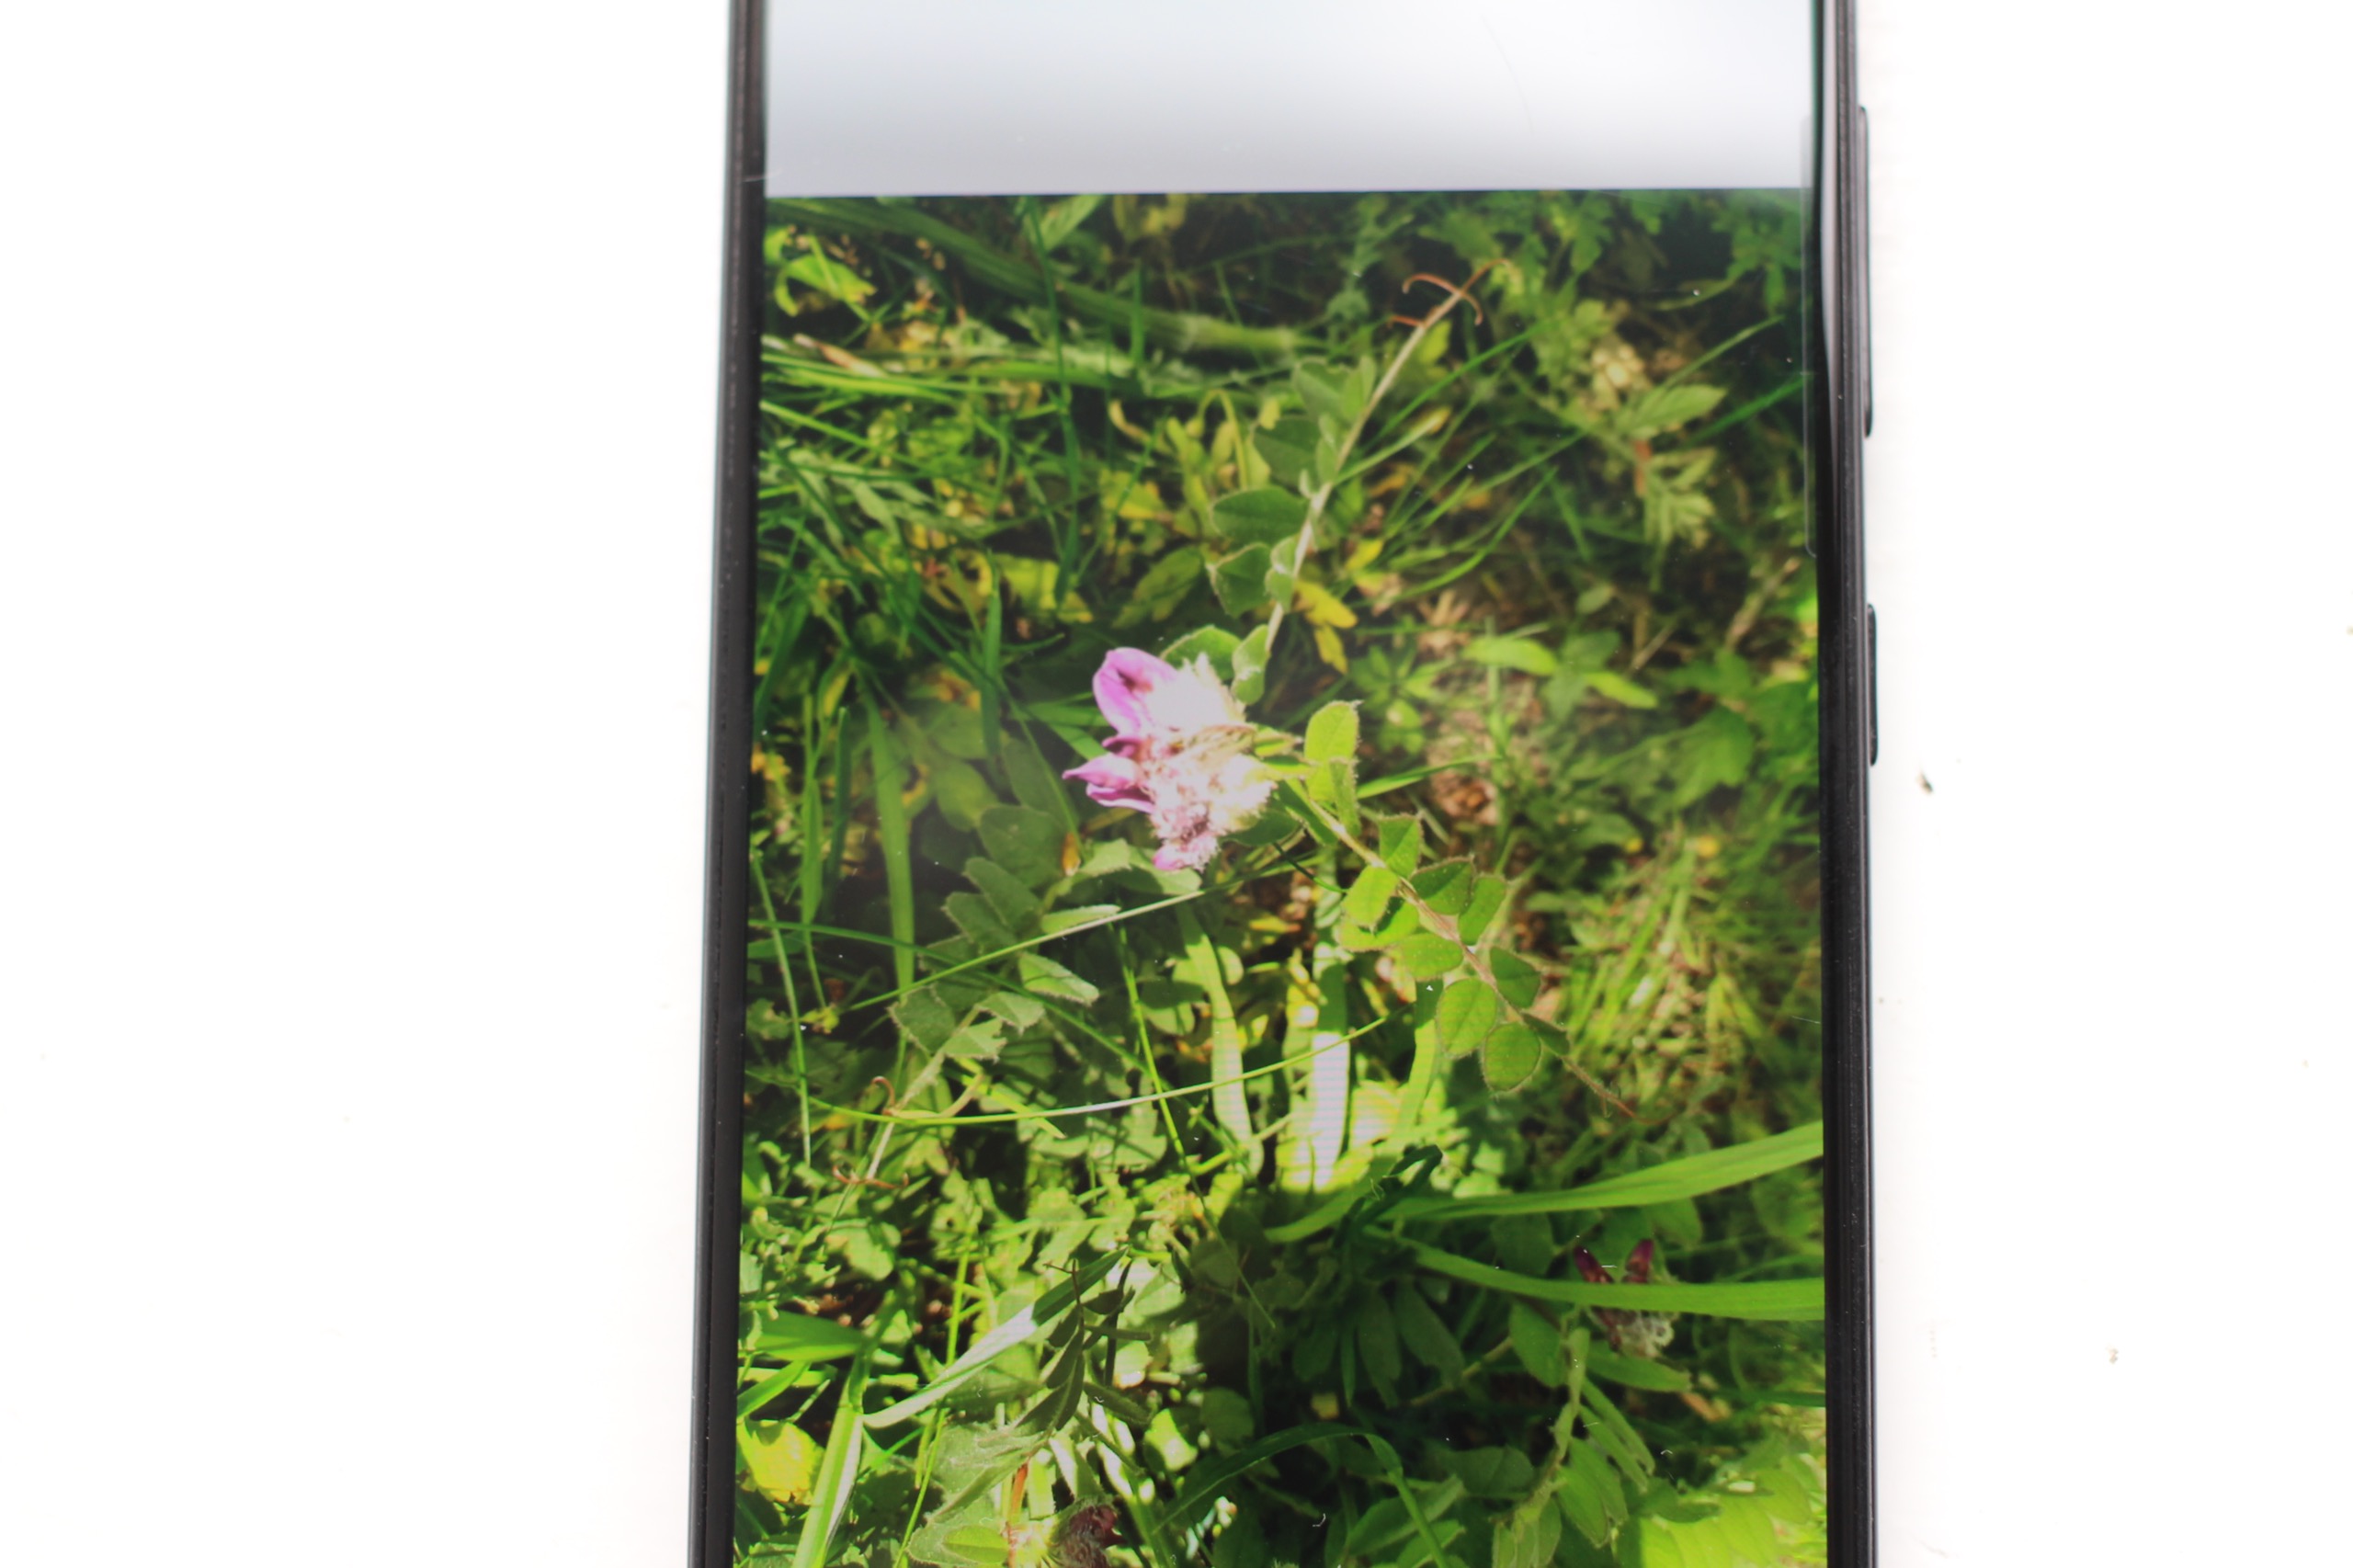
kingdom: Plantae
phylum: Tracheophyta
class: Magnoliopsida
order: Fabales
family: Fabaceae
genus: Vicia
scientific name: Vicia sepium
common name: Gærde-vikke
